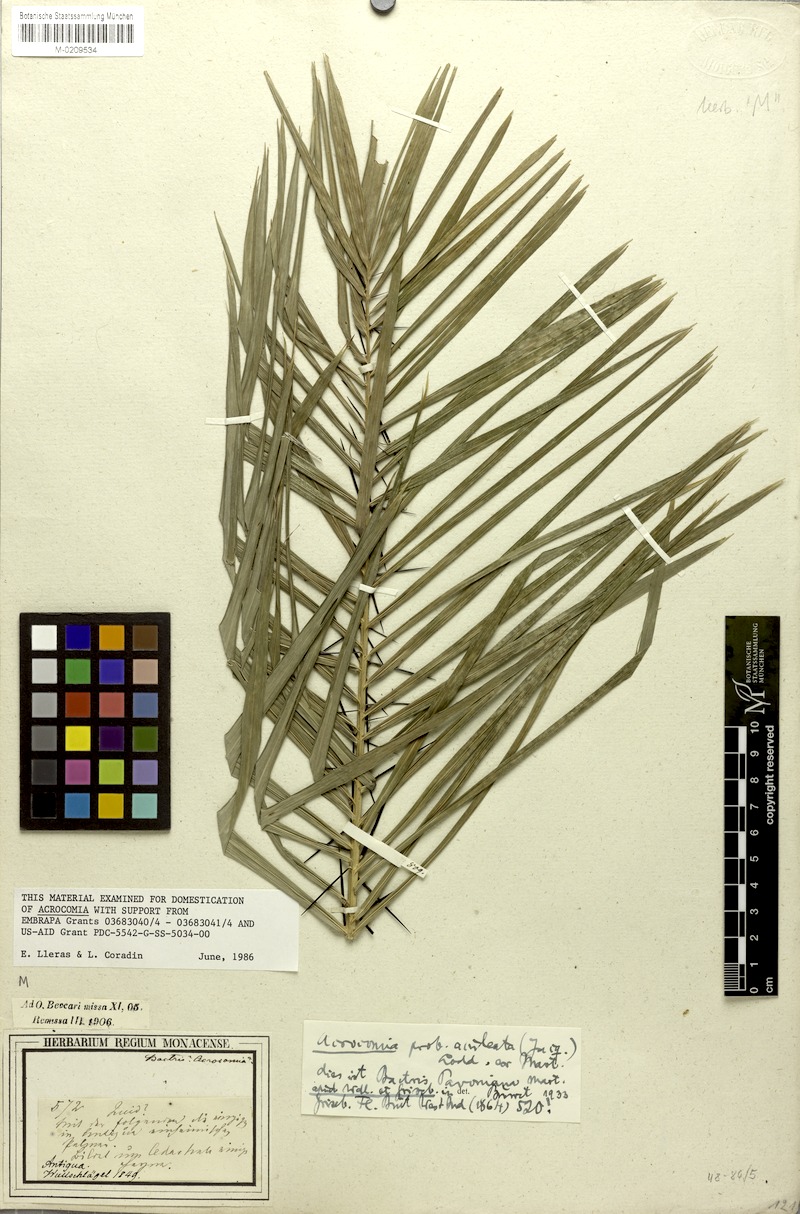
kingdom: Plantae
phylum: Tracheophyta
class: Liliopsida
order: Arecales
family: Arecaceae
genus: Acrocomia
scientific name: Acrocomia aculeata
